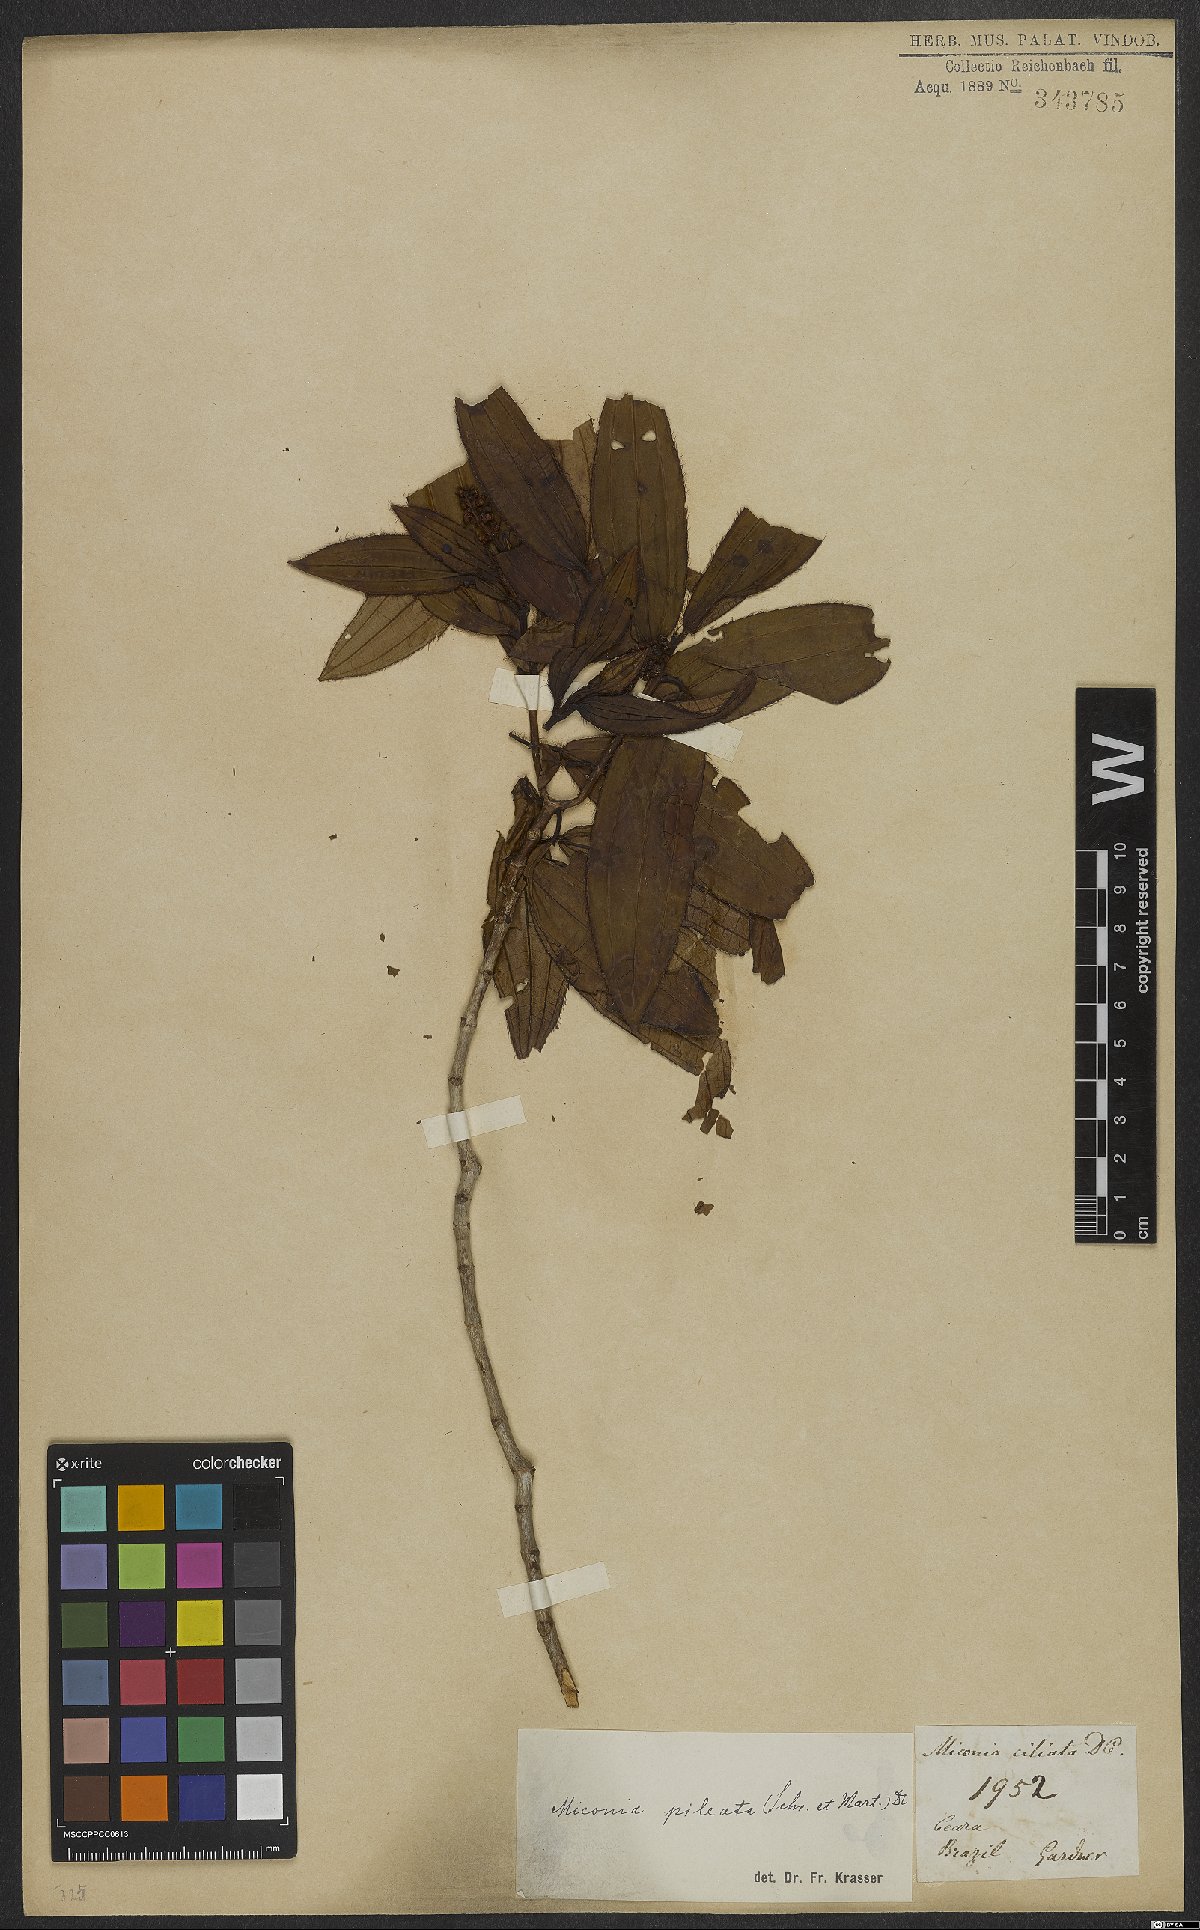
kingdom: Plantae
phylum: Tracheophyta
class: Magnoliopsida
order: Myrtales
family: Melastomataceae
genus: Miconia
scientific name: Miconia pileata
